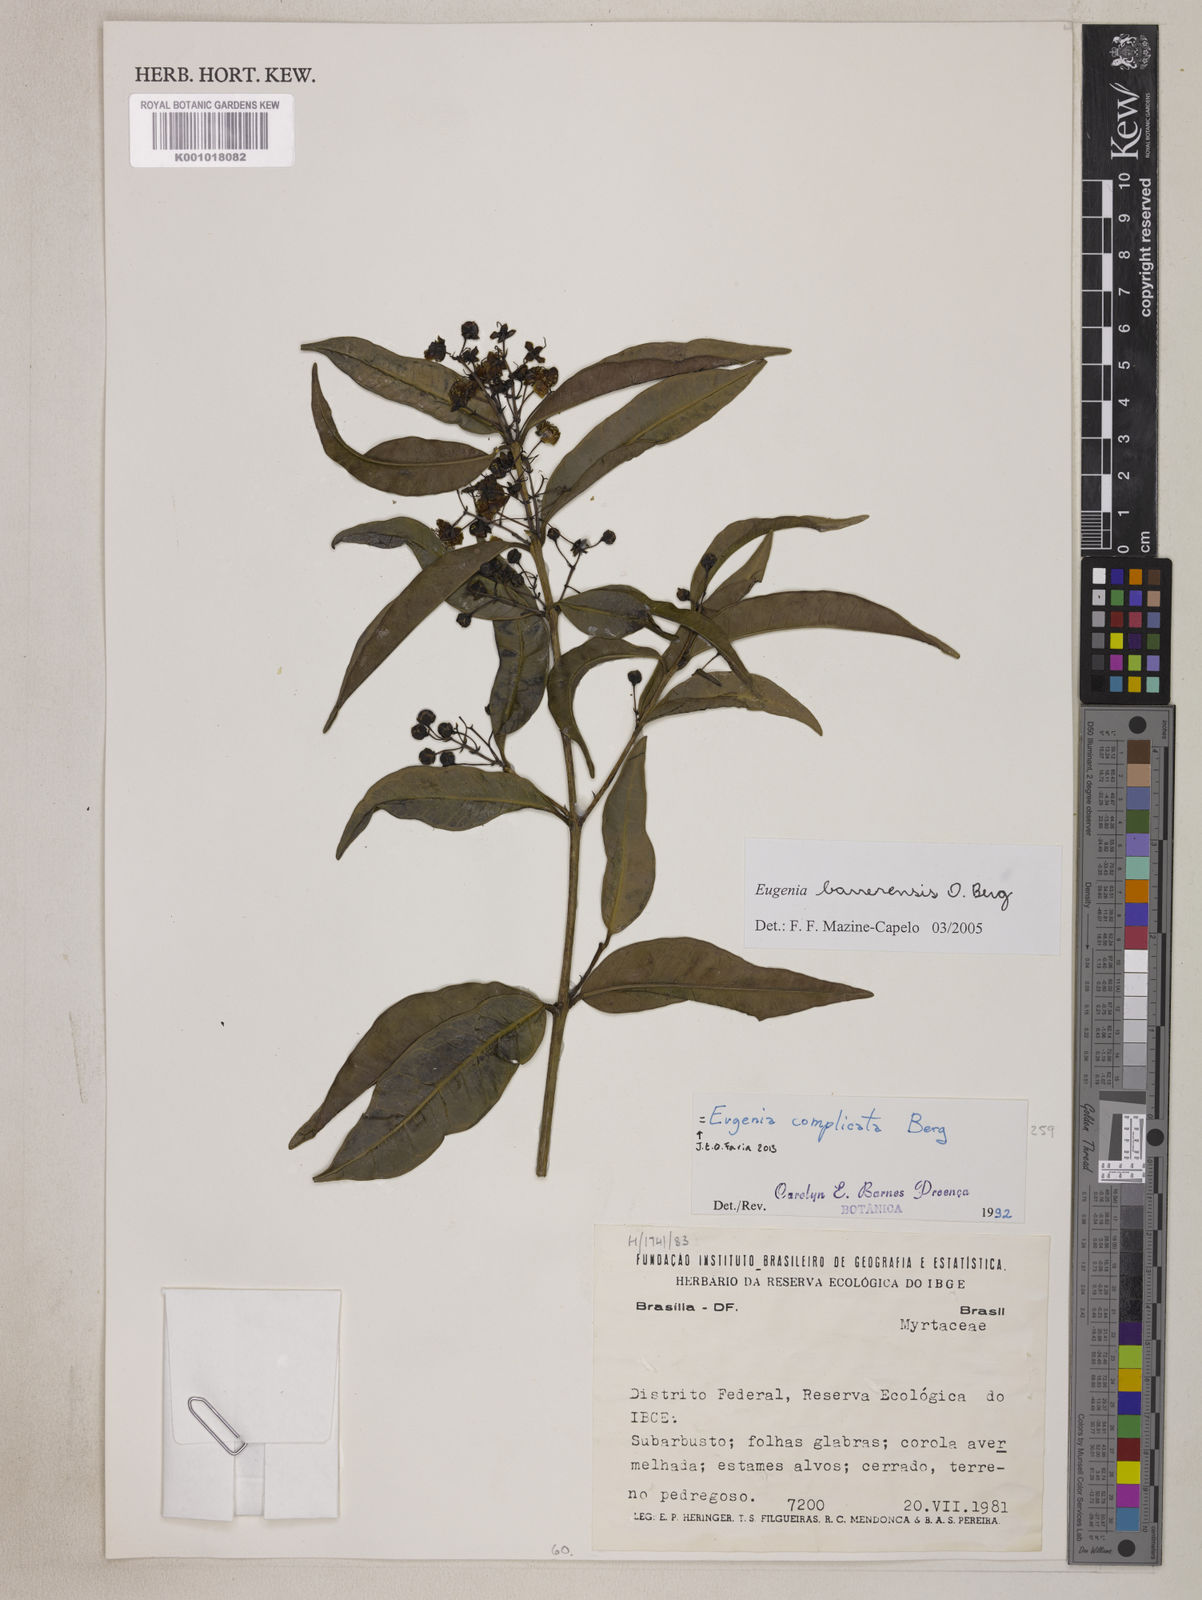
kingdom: Plantae
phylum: Tracheophyta
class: Magnoliopsida
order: Myrtales
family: Myrtaceae
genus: Eugenia
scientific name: Eugenia complicata
